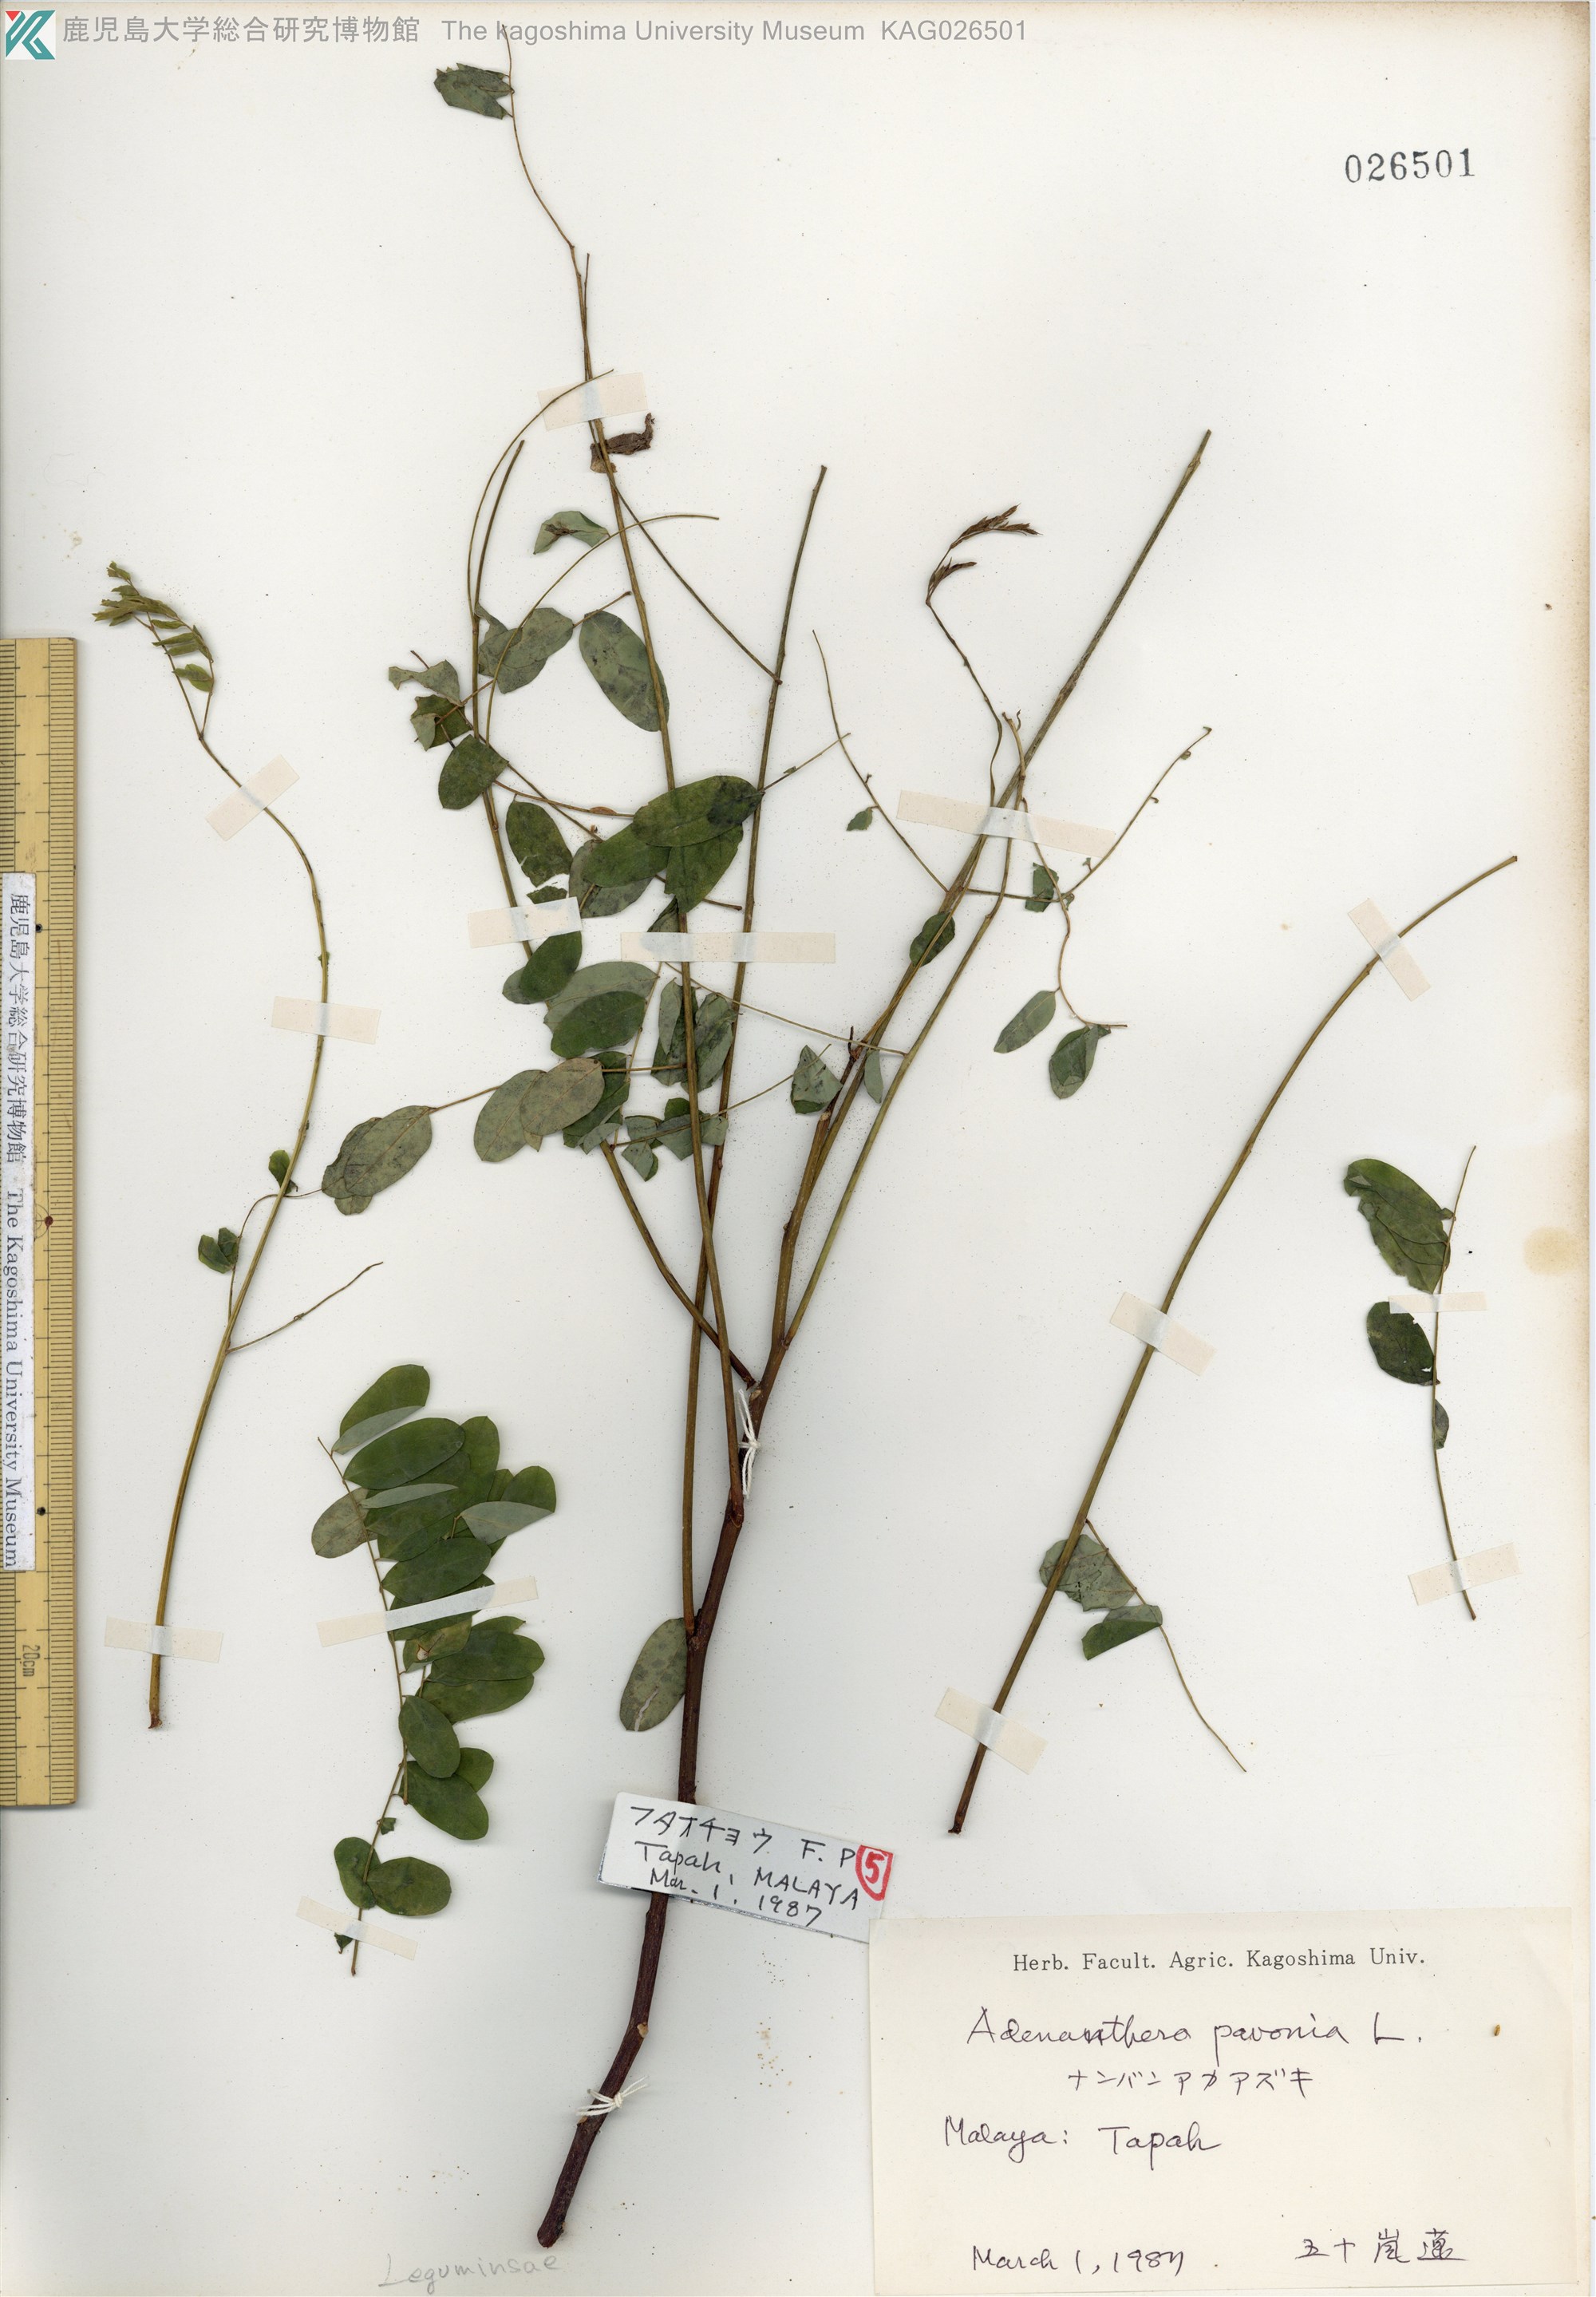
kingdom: Plantae
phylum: Tracheophyta
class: Magnoliopsida
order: Fabales
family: Fabaceae
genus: Adenanthera
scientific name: Adenanthera pavonina
